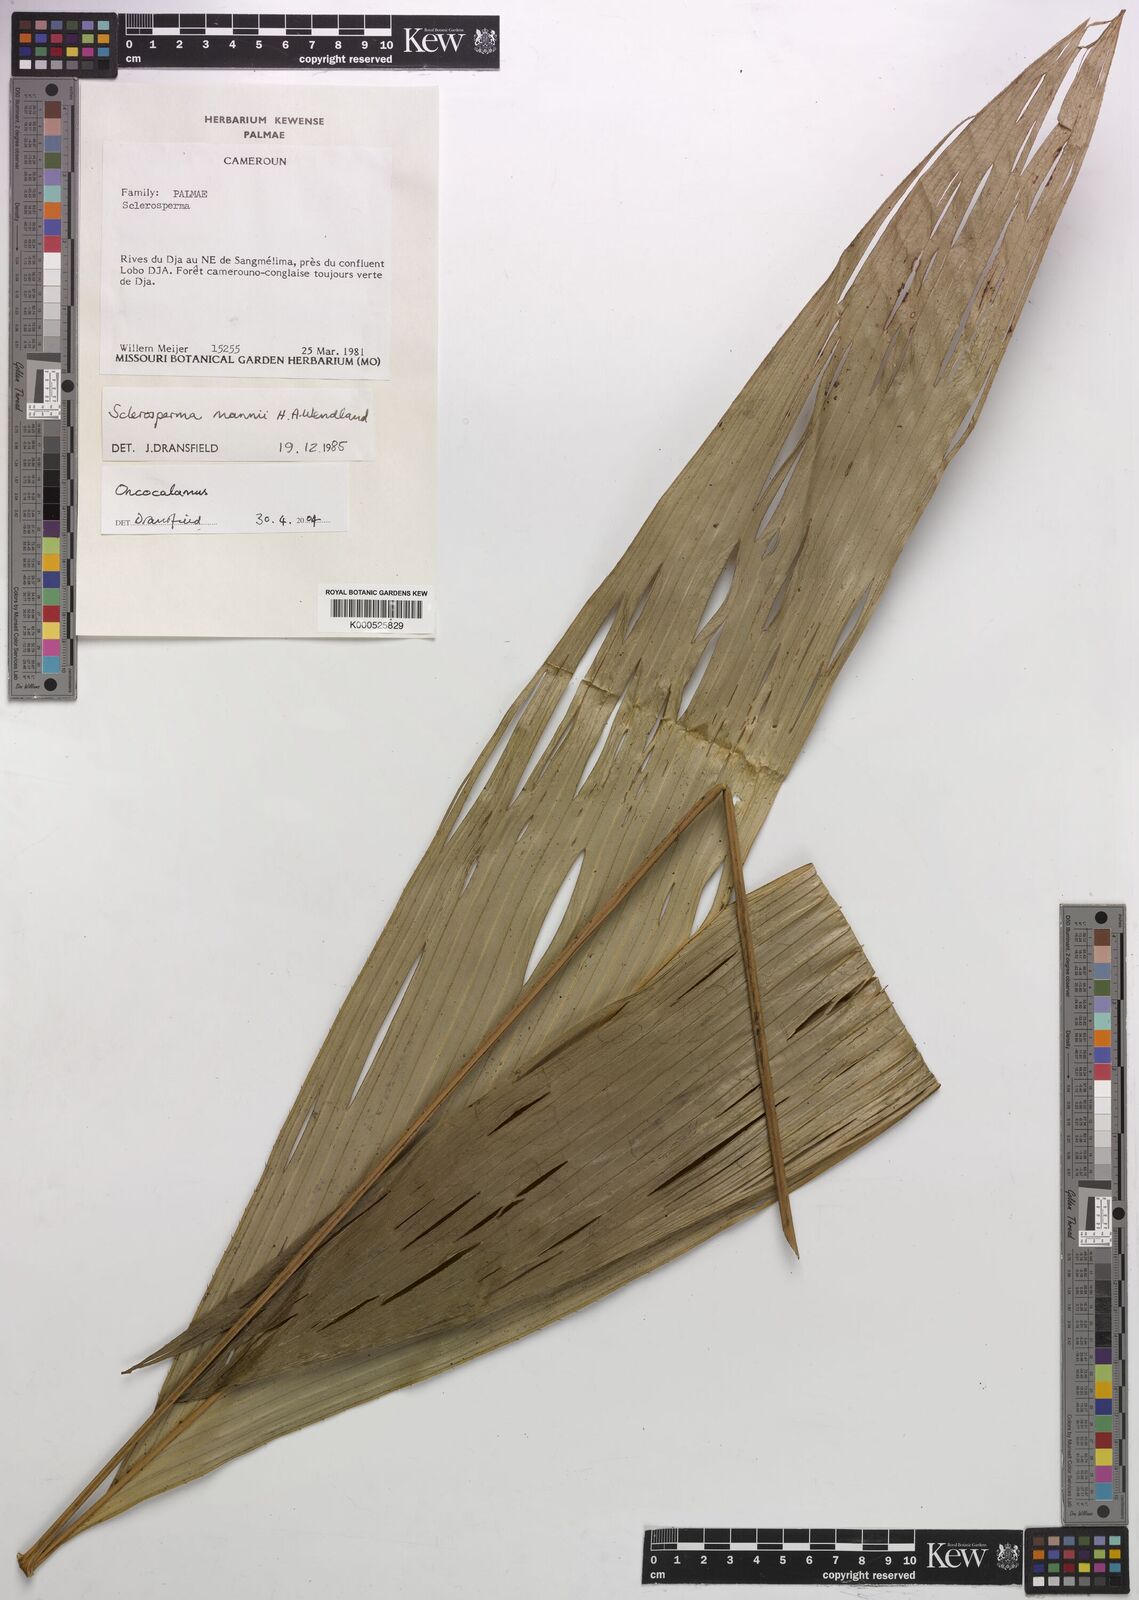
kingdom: Plantae
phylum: Tracheophyta
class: Liliopsida
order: Arecales
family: Arecaceae
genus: Oncocalamus
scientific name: Oncocalamus
